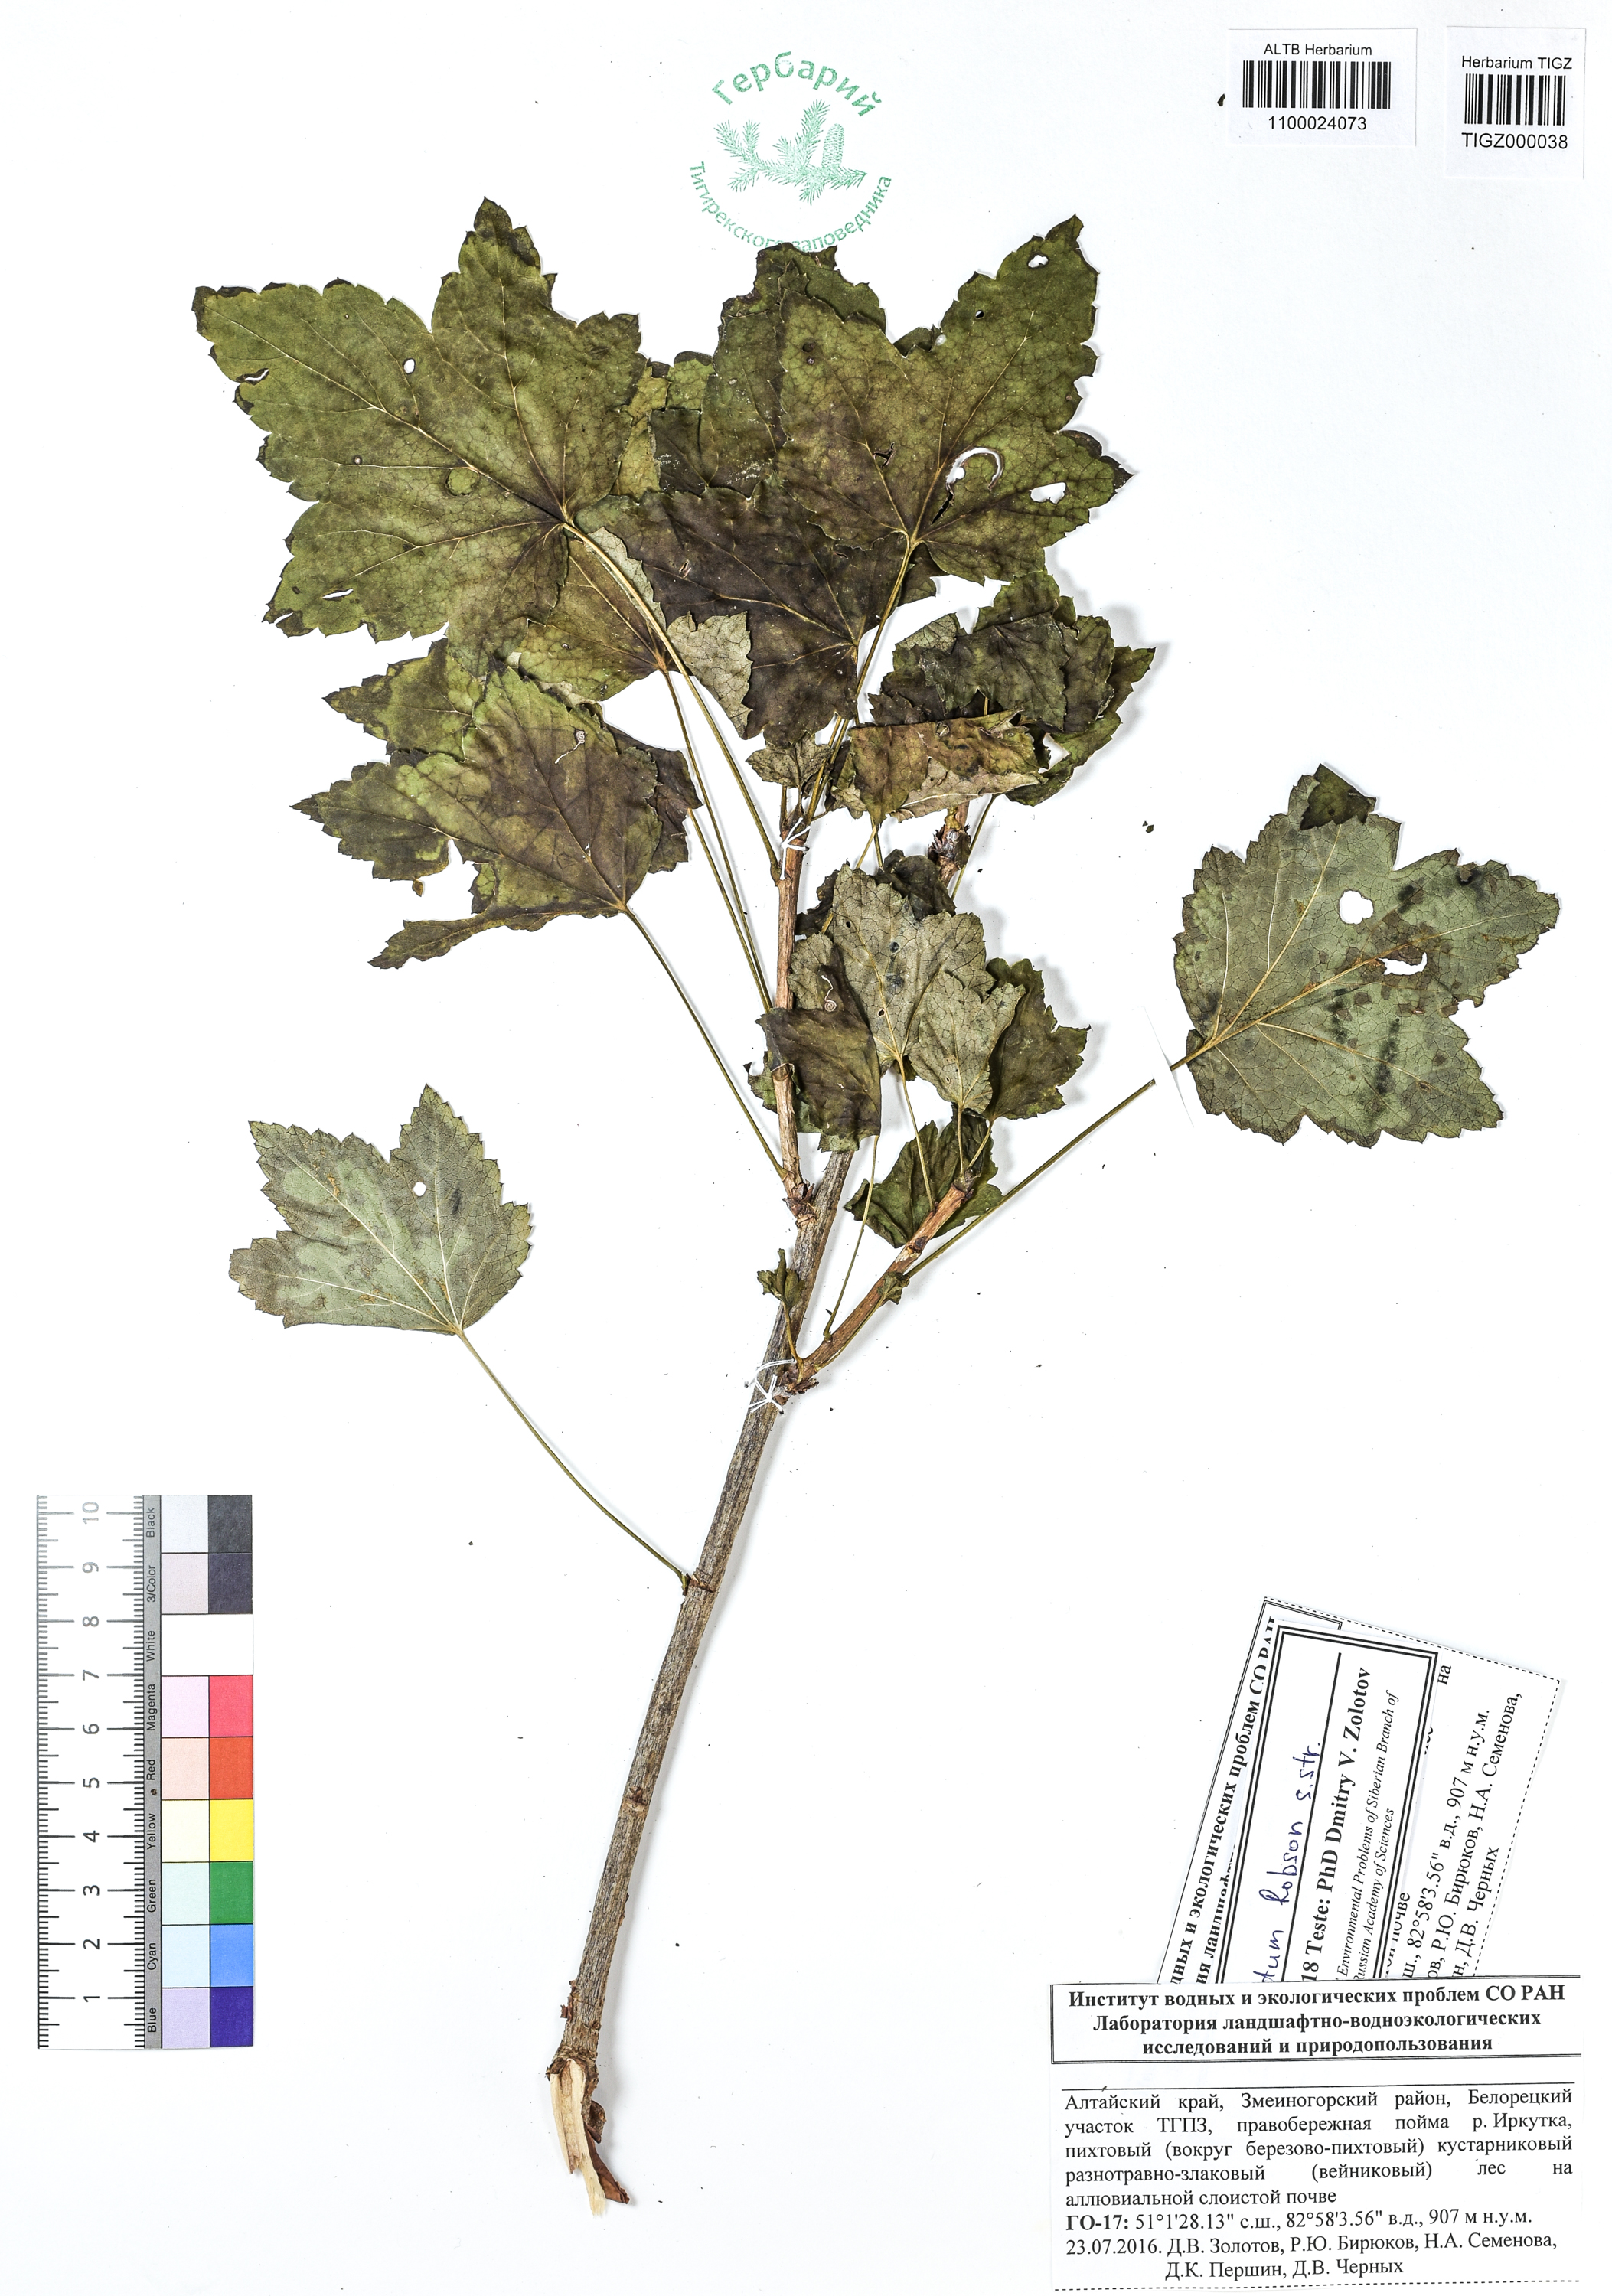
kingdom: Plantae
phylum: Tracheophyta
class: Magnoliopsida
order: Saxifragales
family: Grossulariaceae
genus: Ribes
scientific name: Ribes spicatum
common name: Downy currant
